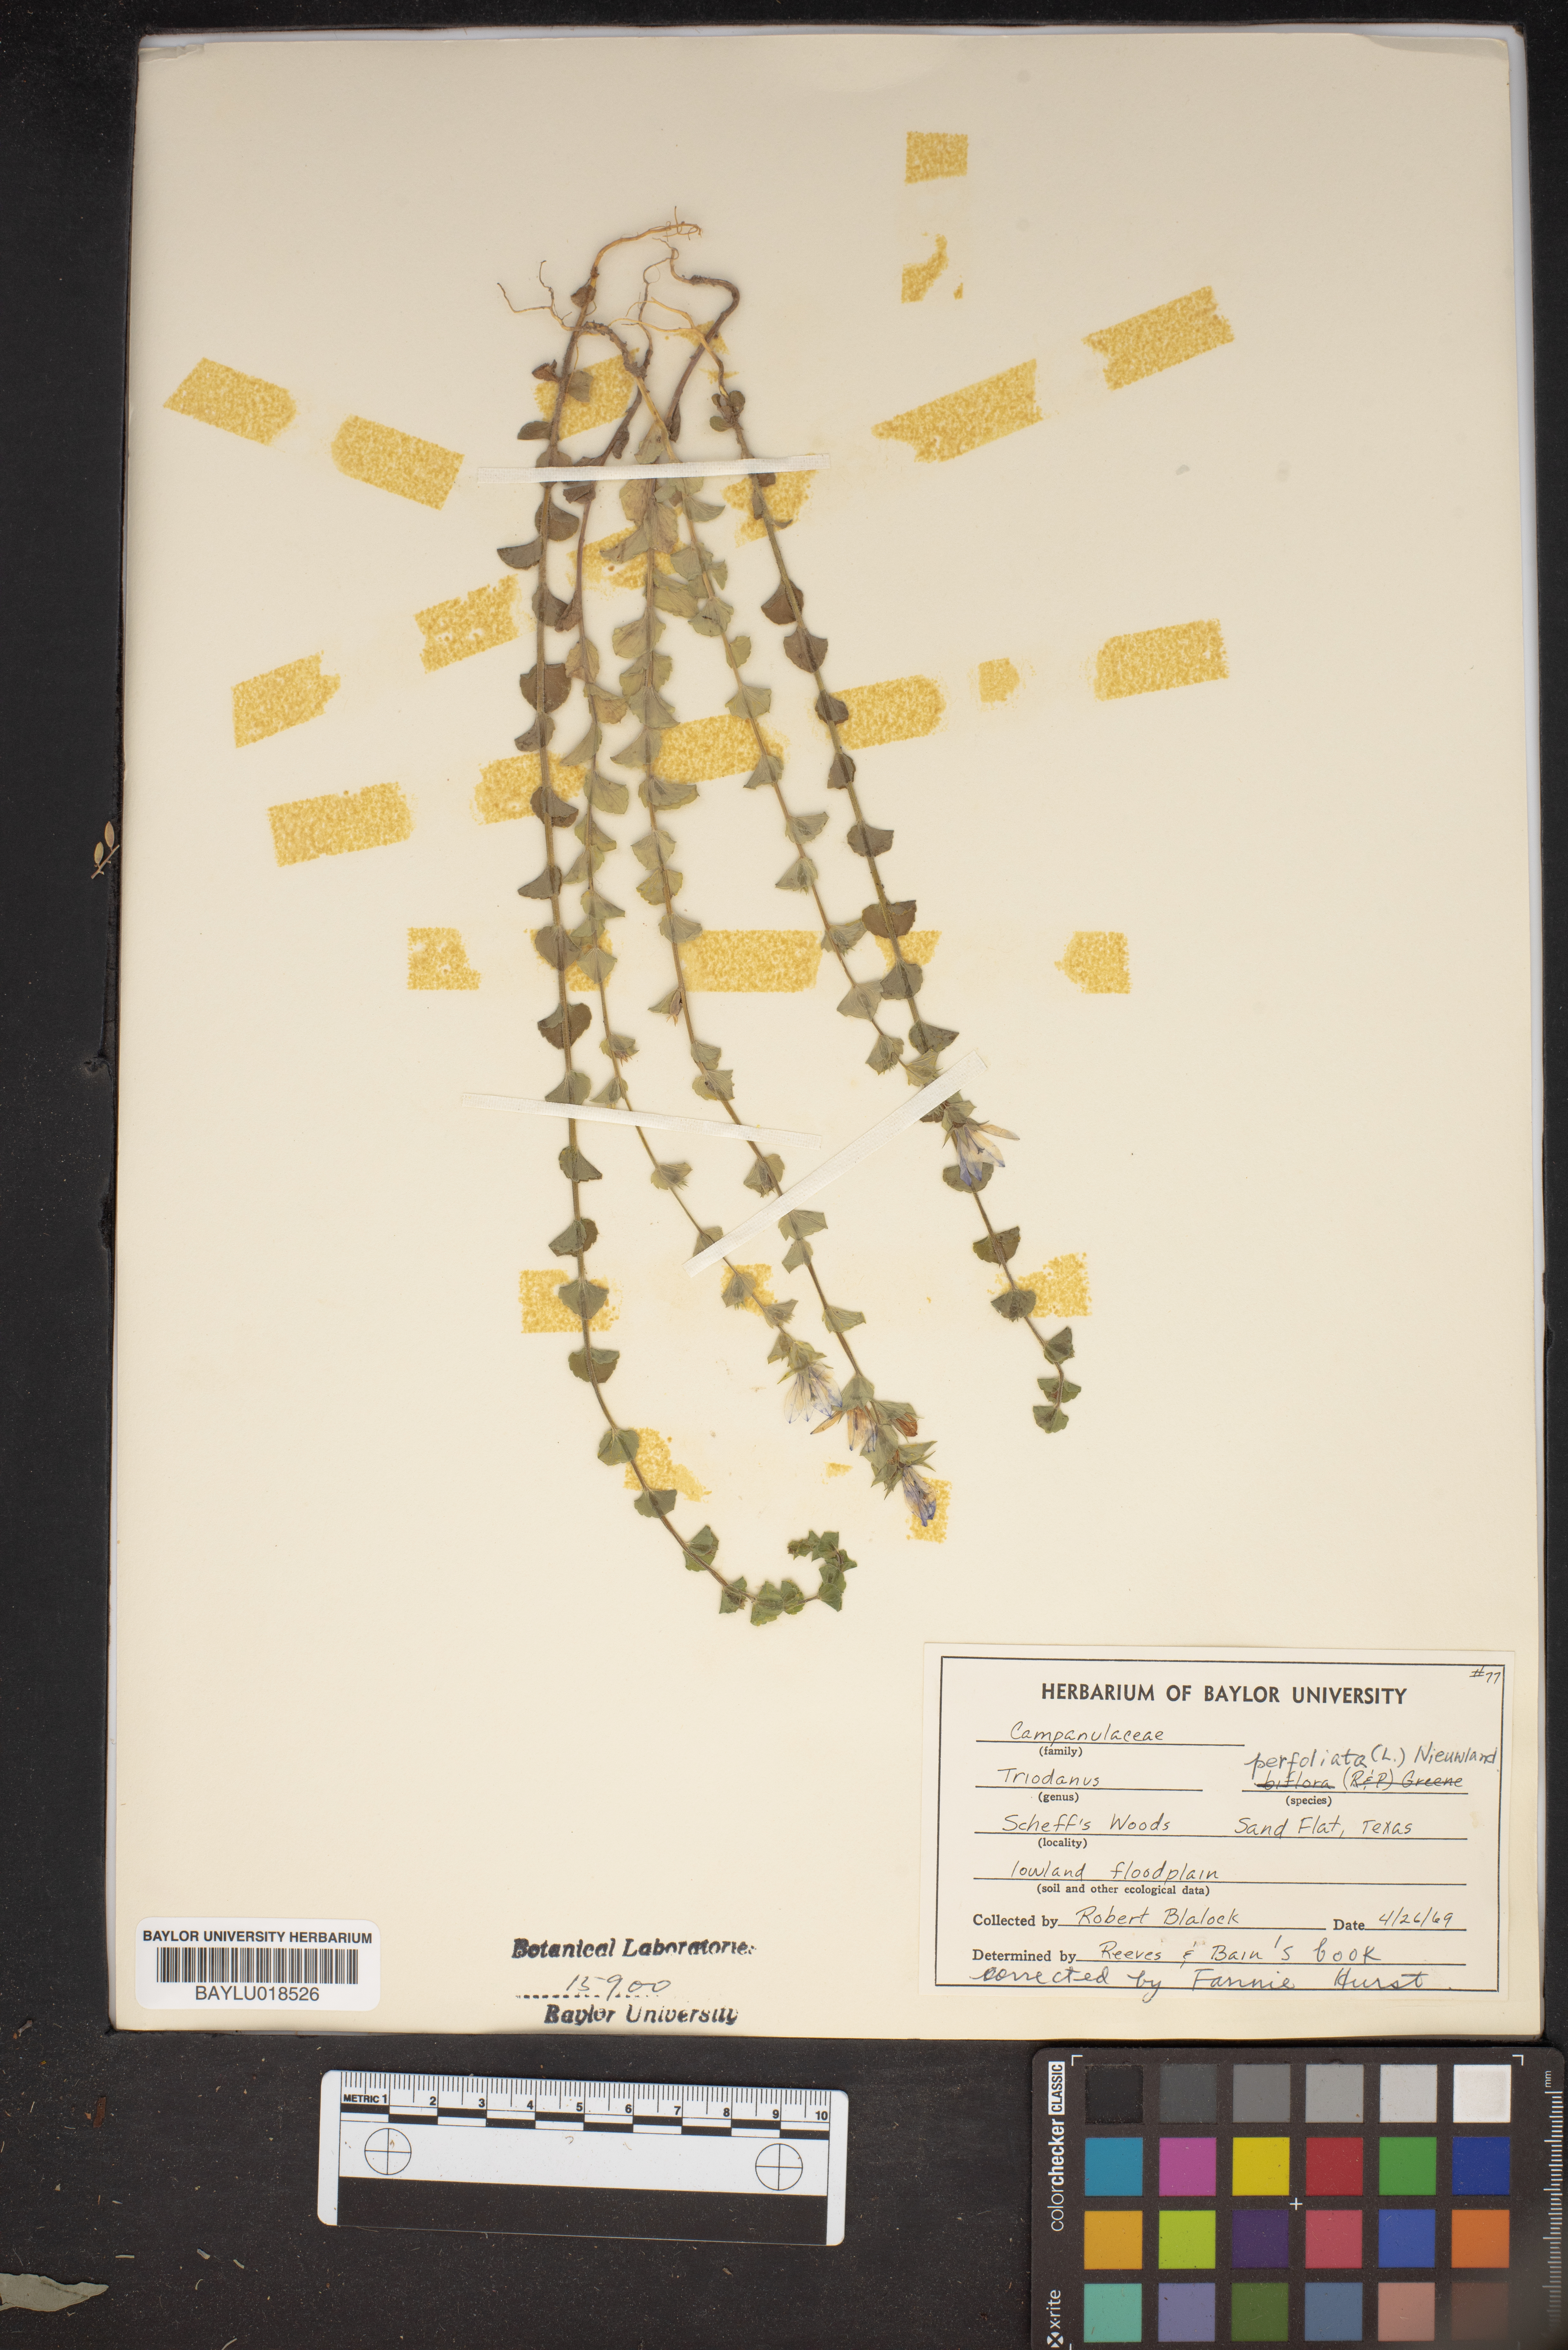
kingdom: Plantae
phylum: Tracheophyta
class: Magnoliopsida
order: Asterales
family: Campanulaceae
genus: Triodanis
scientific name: Triodanis perfoliata
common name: Clasping venus' looking-glass
